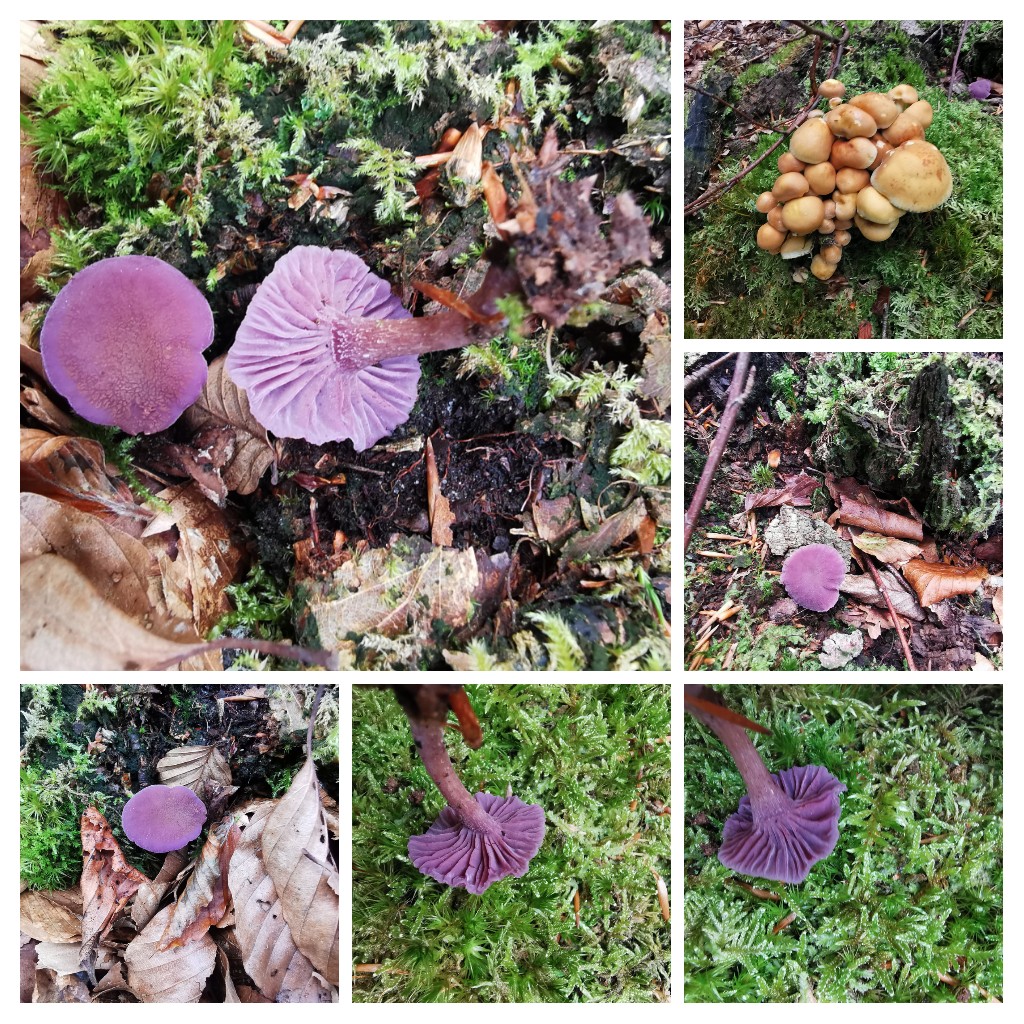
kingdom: Fungi
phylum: Basidiomycota
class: Agaricomycetes
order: Agaricales
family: Hydnangiaceae
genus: Laccaria
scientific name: Laccaria amethystina
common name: violet ametysthat
